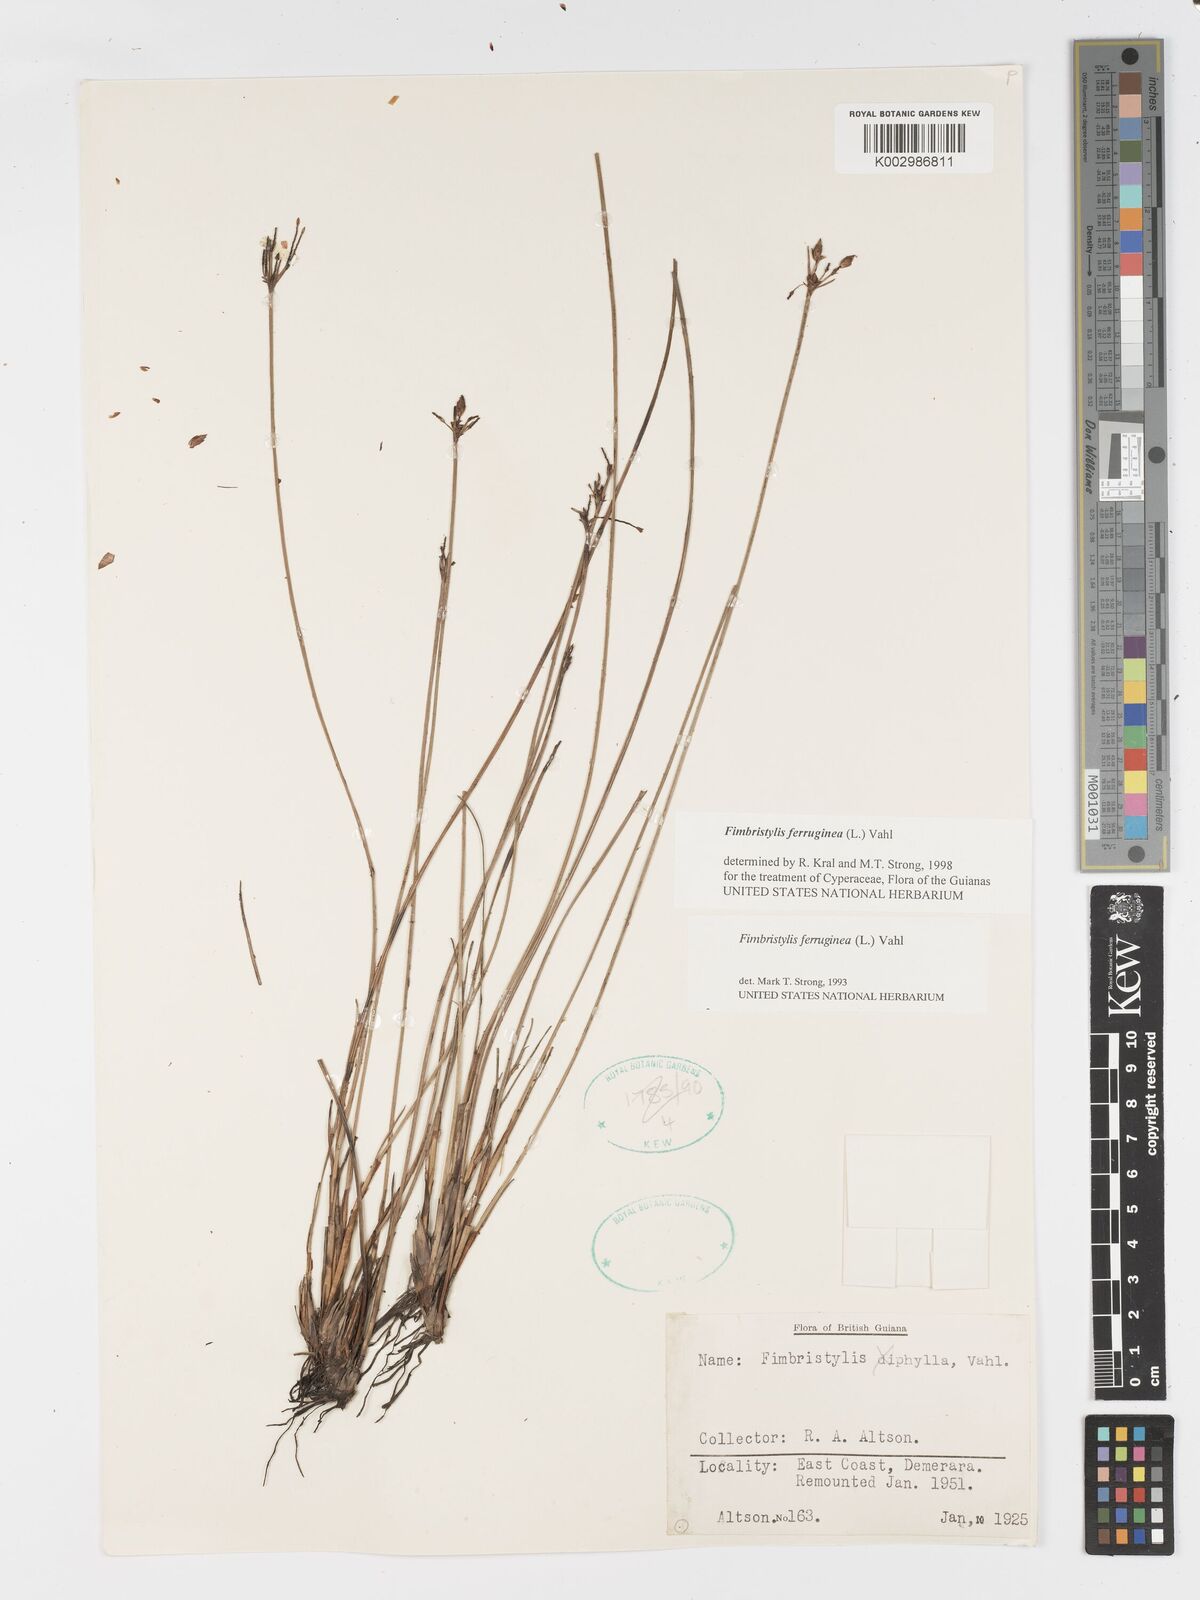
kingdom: Plantae
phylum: Tracheophyta
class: Liliopsida
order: Poales
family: Cyperaceae
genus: Fimbristylis
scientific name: Fimbristylis ferruginea
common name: West indian fimbry
